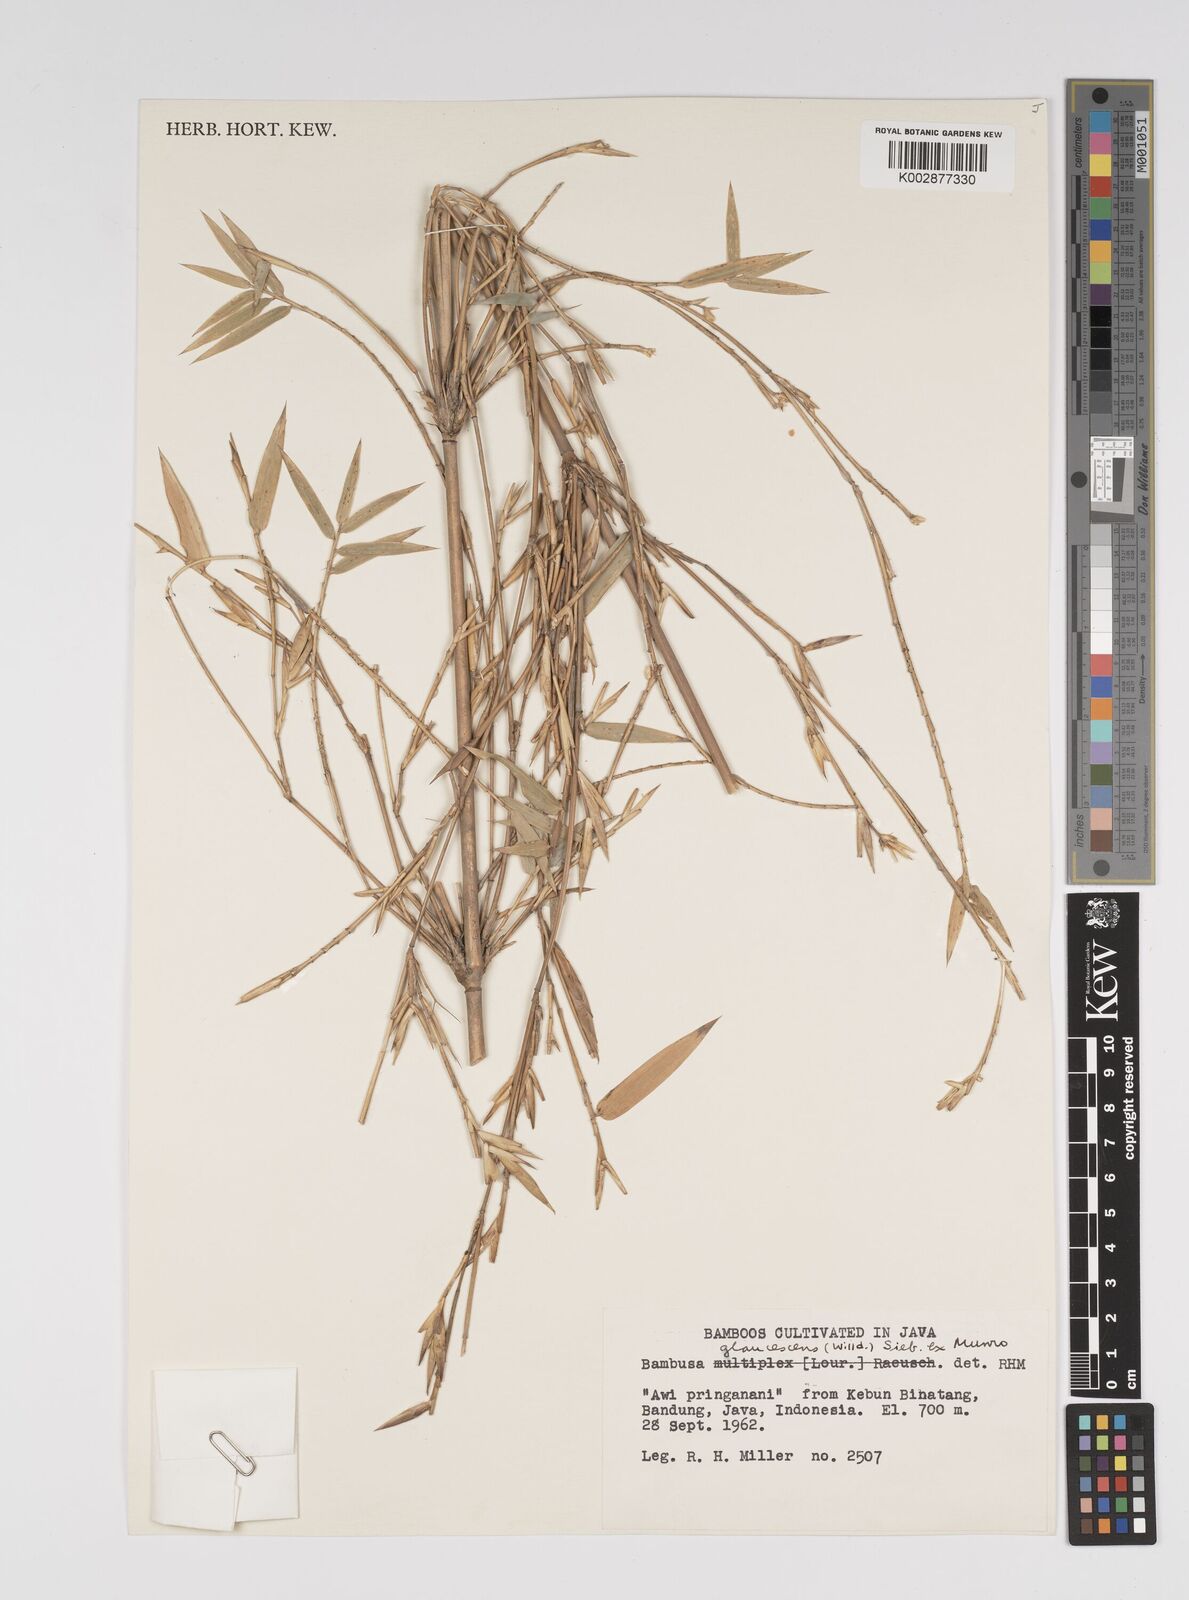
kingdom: Plantae
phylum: Tracheophyta
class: Liliopsida
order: Poales
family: Poaceae
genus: Bambusa
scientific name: Bambusa multiplex
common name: Hedge bamboo
